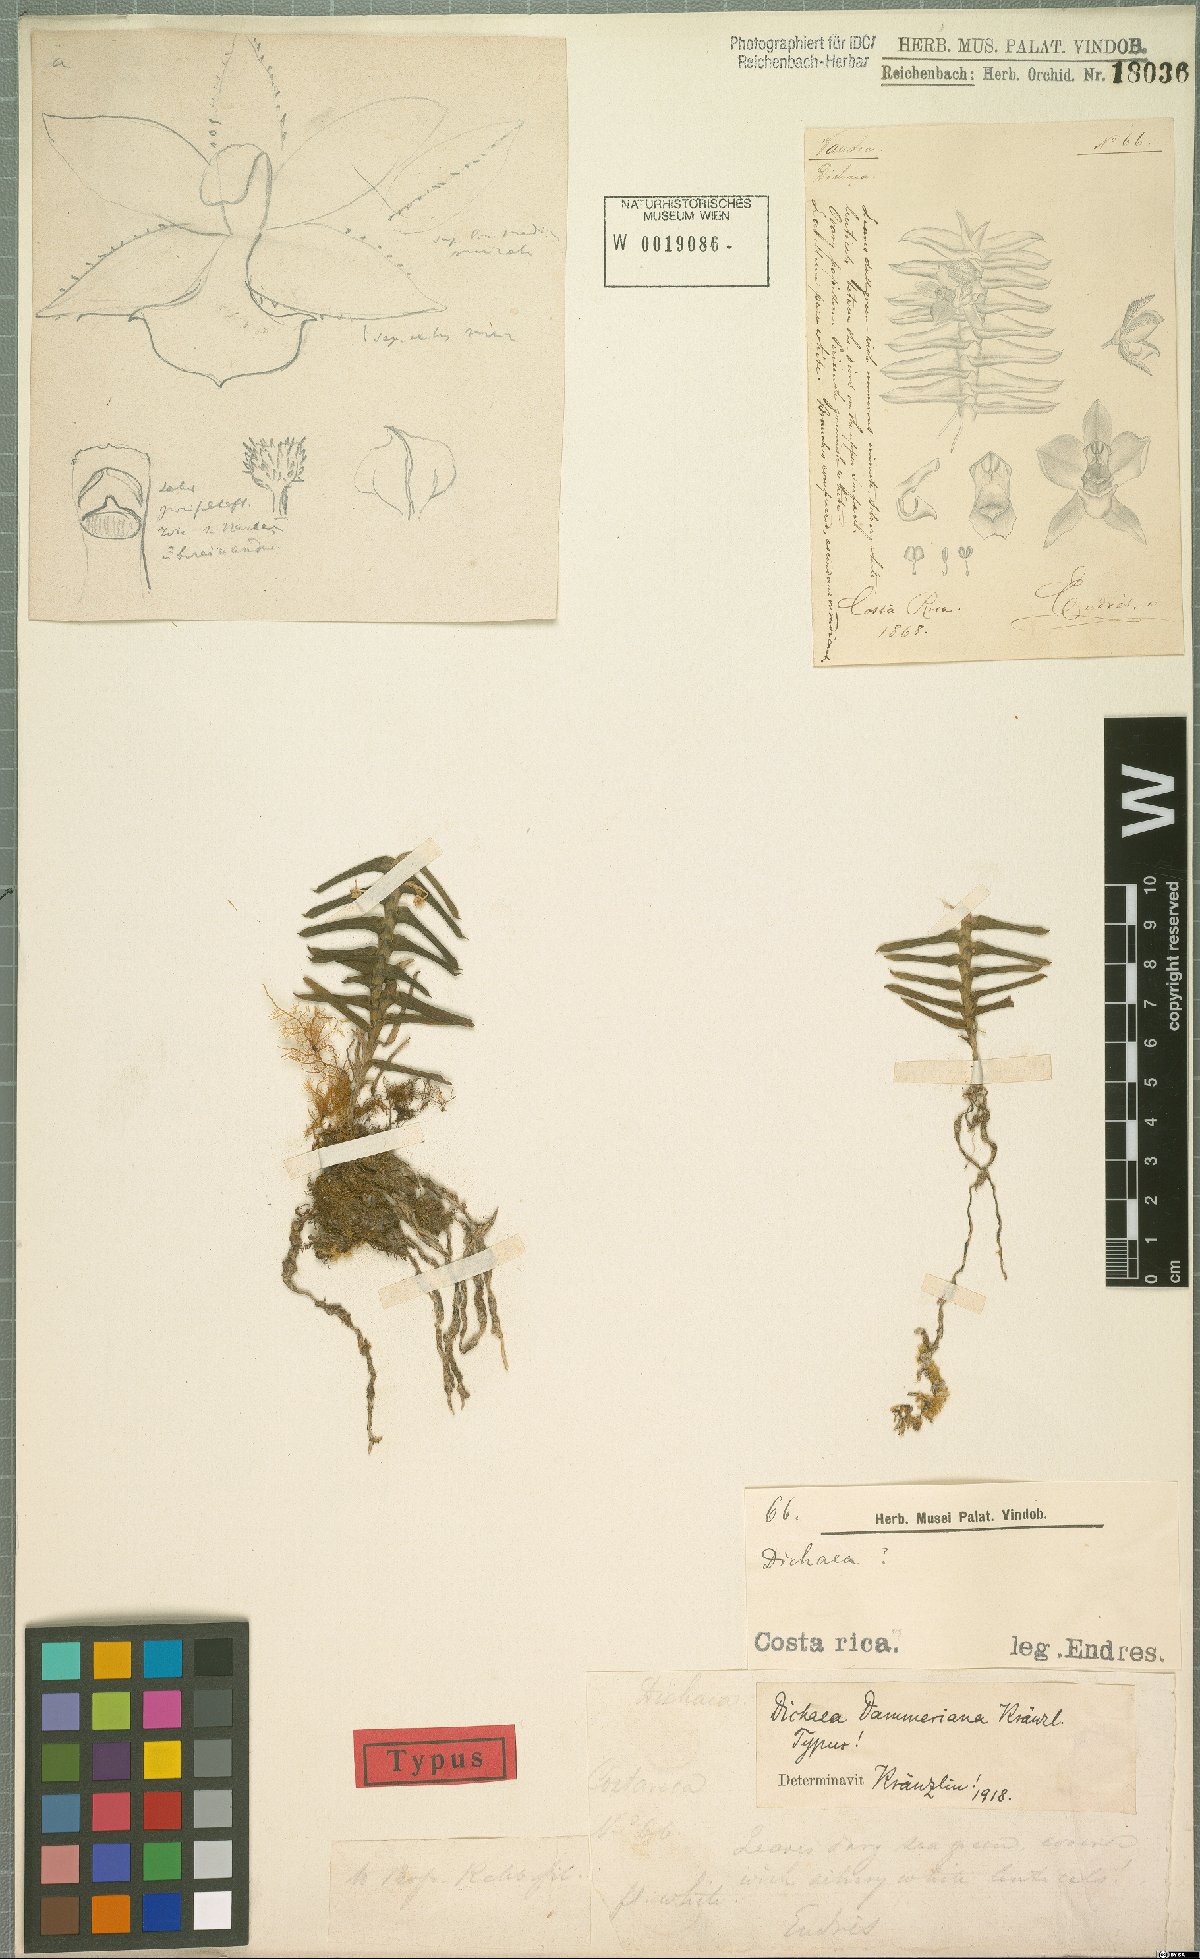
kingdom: Plantae
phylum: Tracheophyta
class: Liliopsida
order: Asparagales
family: Orchidaceae
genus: Dichaea
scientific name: Dichaea dammeriana
